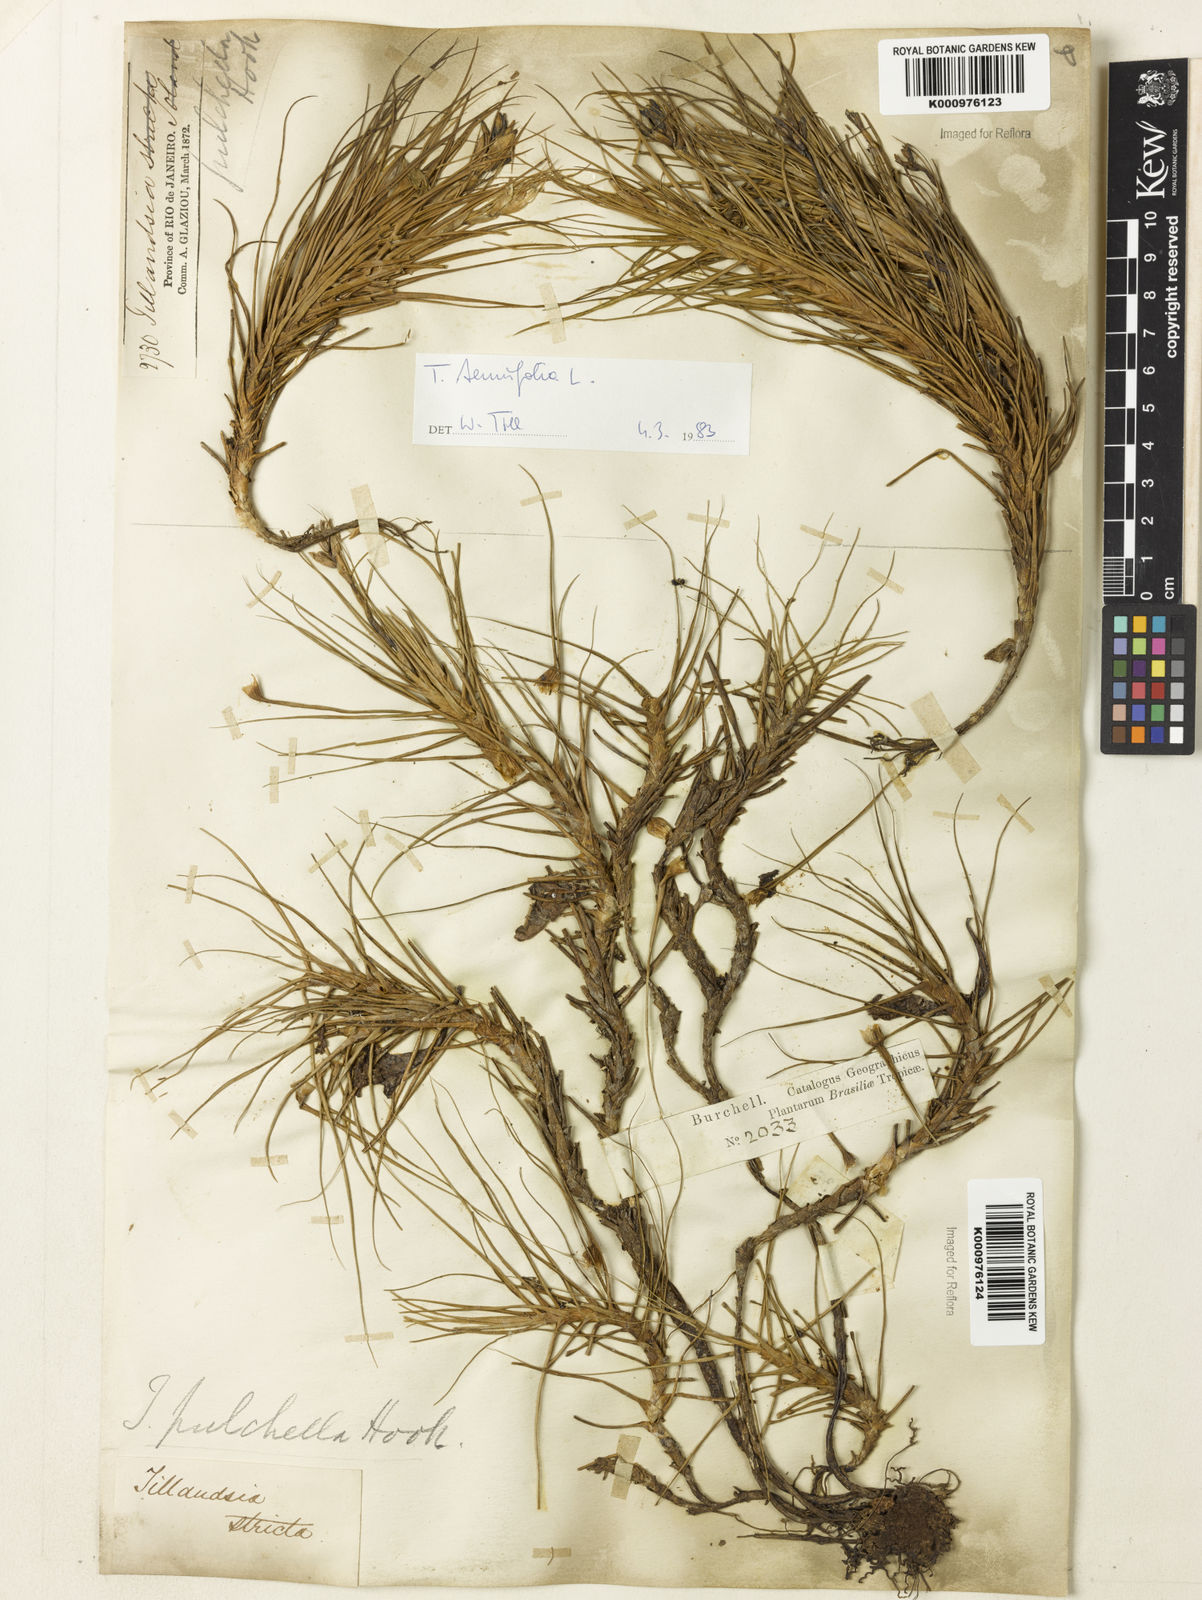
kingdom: Plantae
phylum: Tracheophyta
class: Liliopsida
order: Poales
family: Bromeliaceae
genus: Tillandsia
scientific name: Tillandsia tenuifolia
